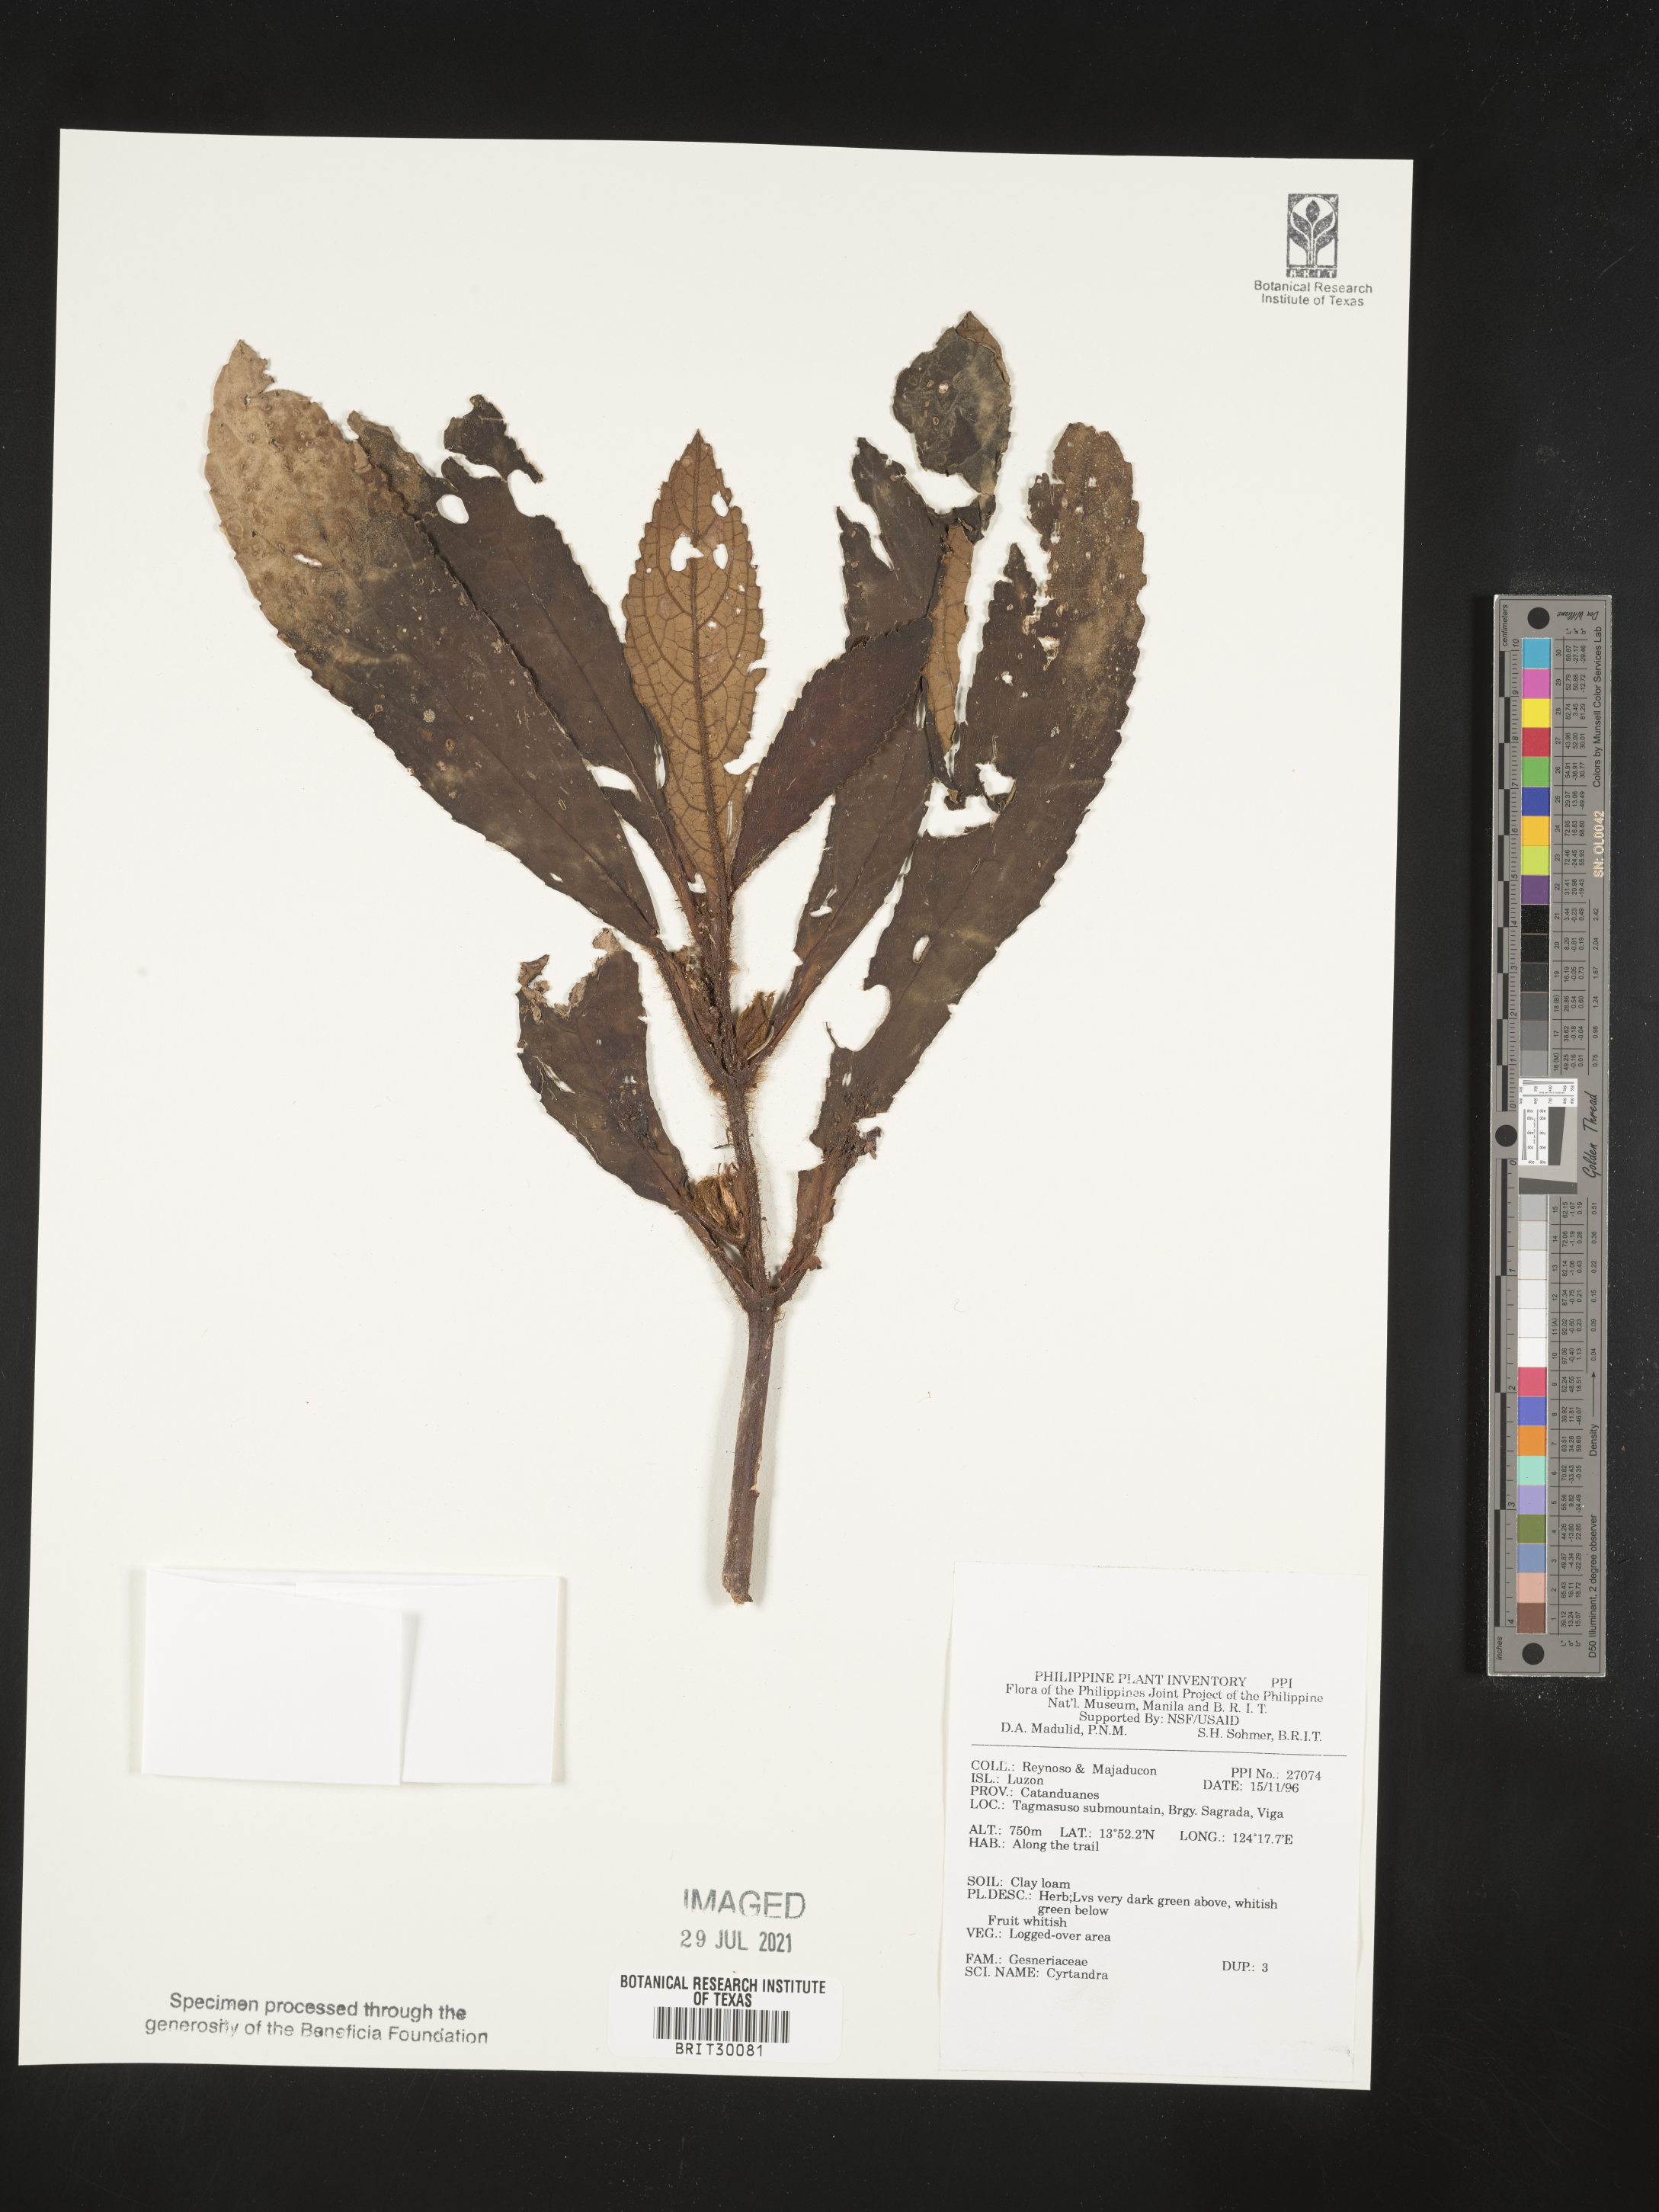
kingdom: Plantae
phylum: Tracheophyta
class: Magnoliopsida
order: Lamiales
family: Gesneriaceae
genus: Cyrtandra
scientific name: Cyrtandra
